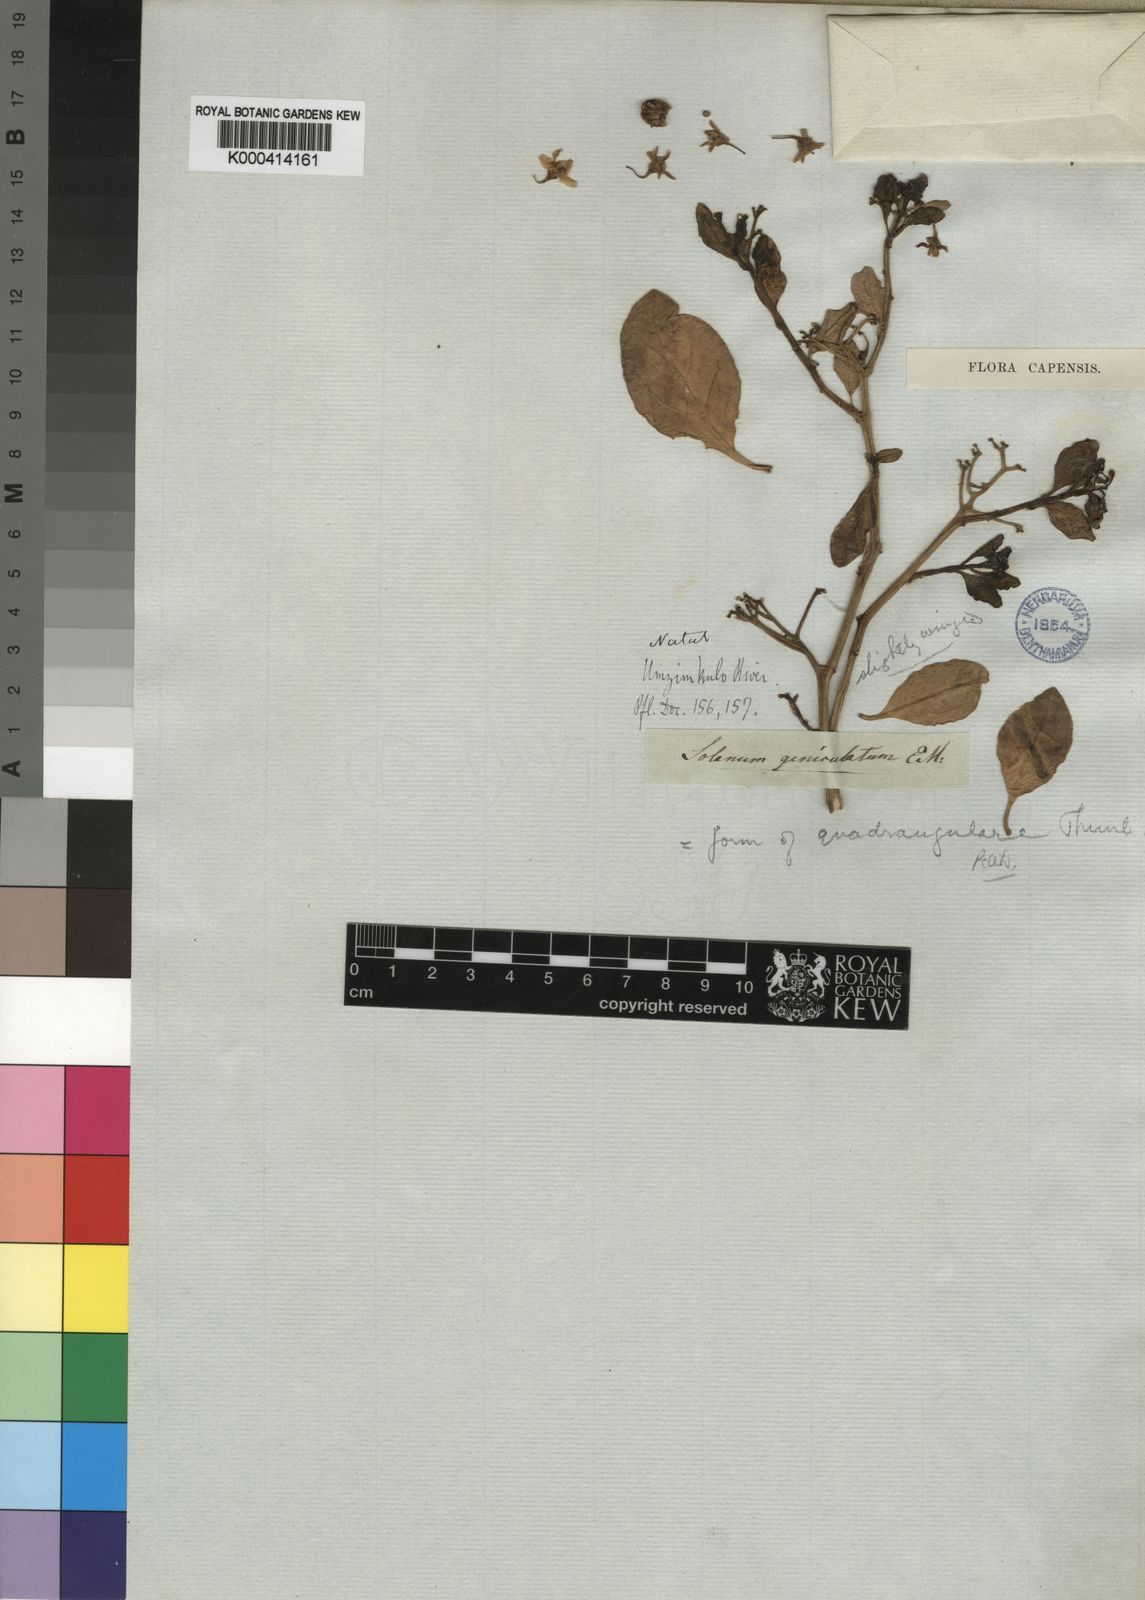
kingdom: Plantae
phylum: Tracheophyta
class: Magnoliopsida
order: Solanales
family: Solanaceae
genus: Solanum
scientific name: Solanum
